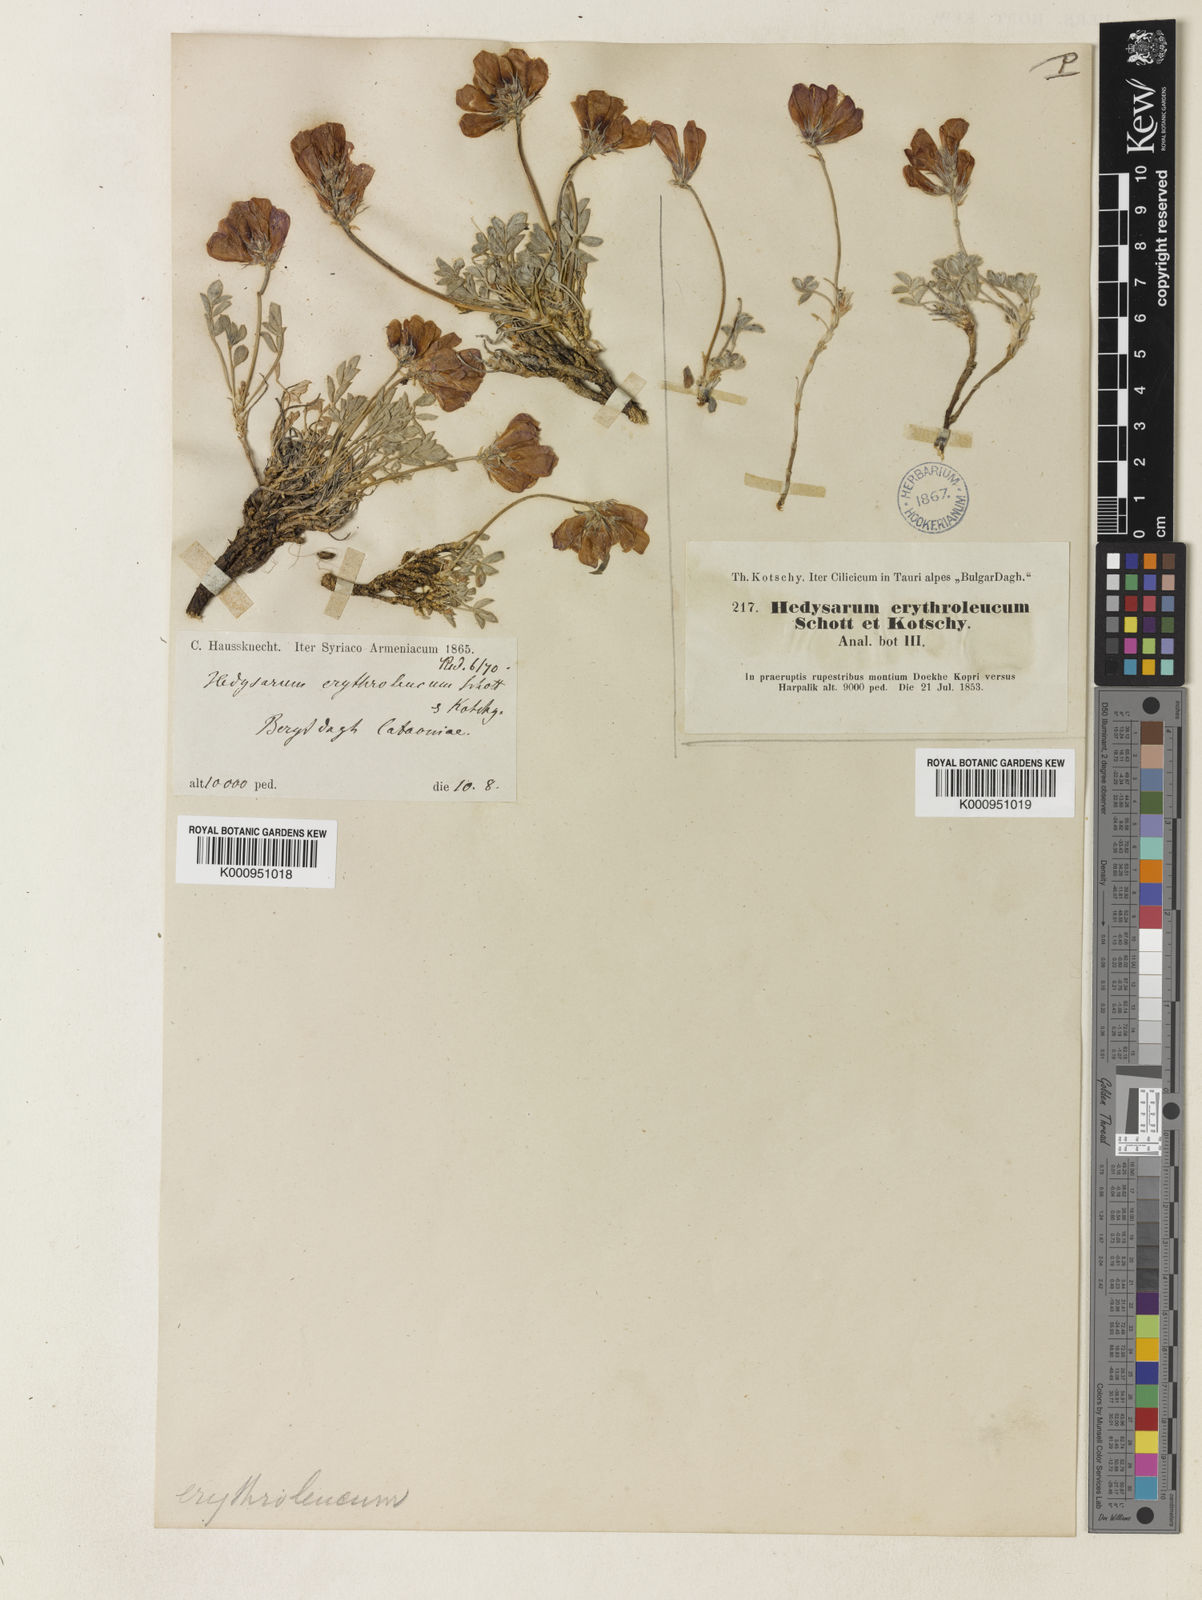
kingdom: Plantae
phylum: Tracheophyta
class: Magnoliopsida
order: Fabales
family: Fabaceae
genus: Hedysarum
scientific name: Hedysarum erythroleucum
